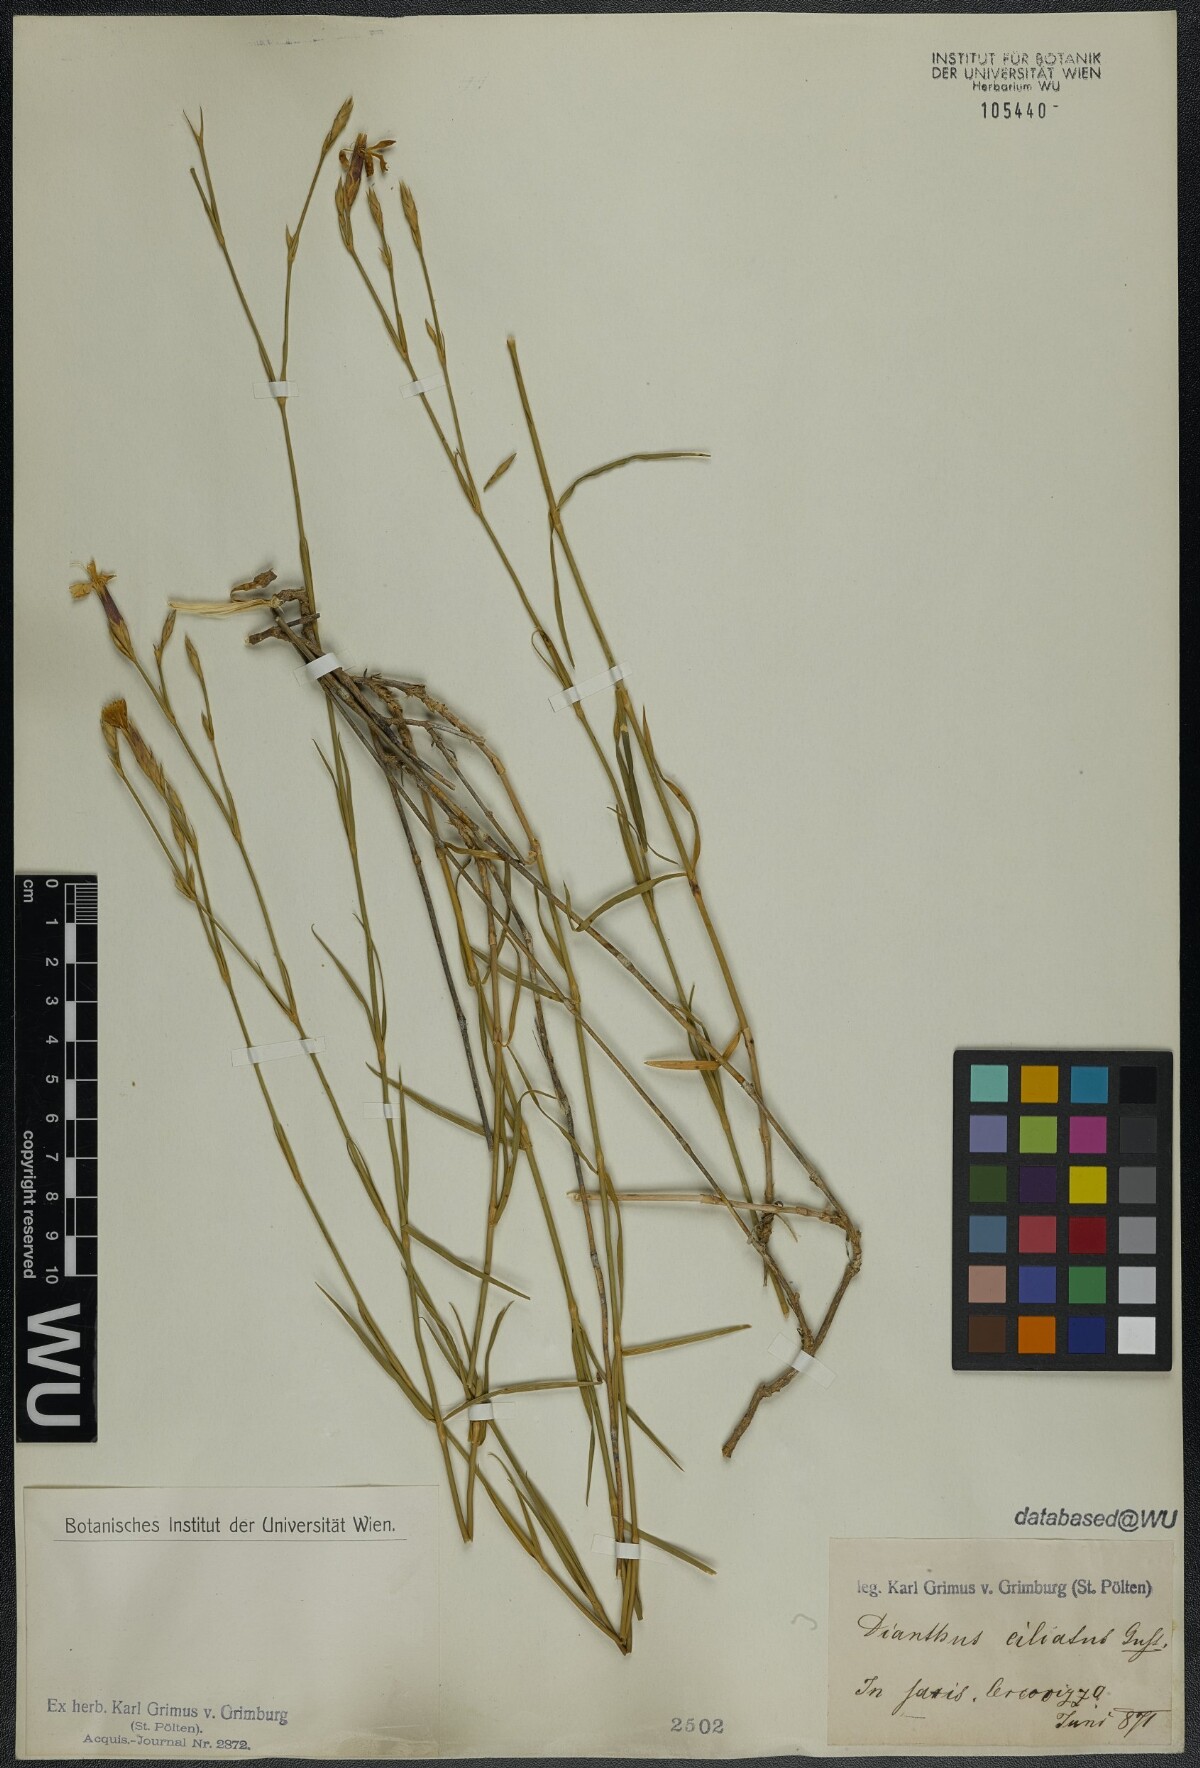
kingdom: Plantae
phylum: Tracheophyta
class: Magnoliopsida
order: Caryophyllales
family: Caryophyllaceae
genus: Dianthus
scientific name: Dianthus ciliatus
